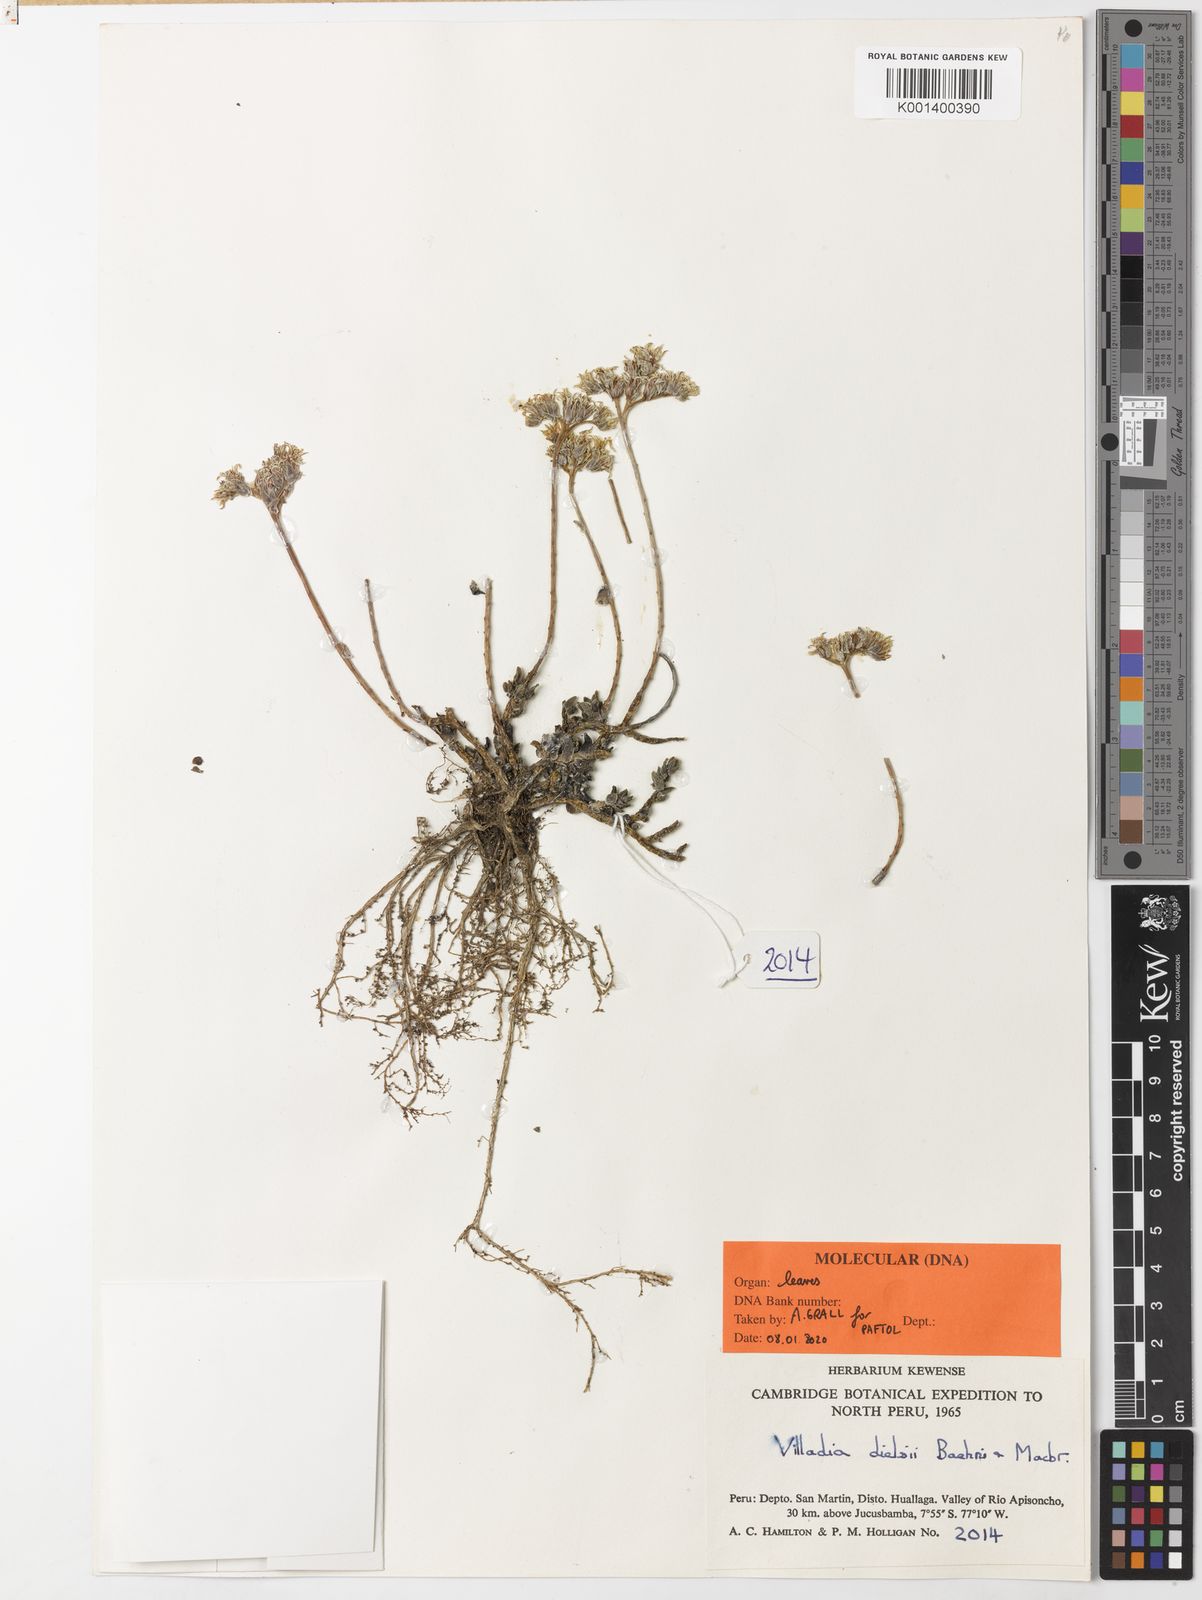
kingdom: Plantae
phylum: Tracheophyta
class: Magnoliopsida
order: Saxifragales
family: Crassulaceae
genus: Sedum
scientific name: Sedum decipiens
